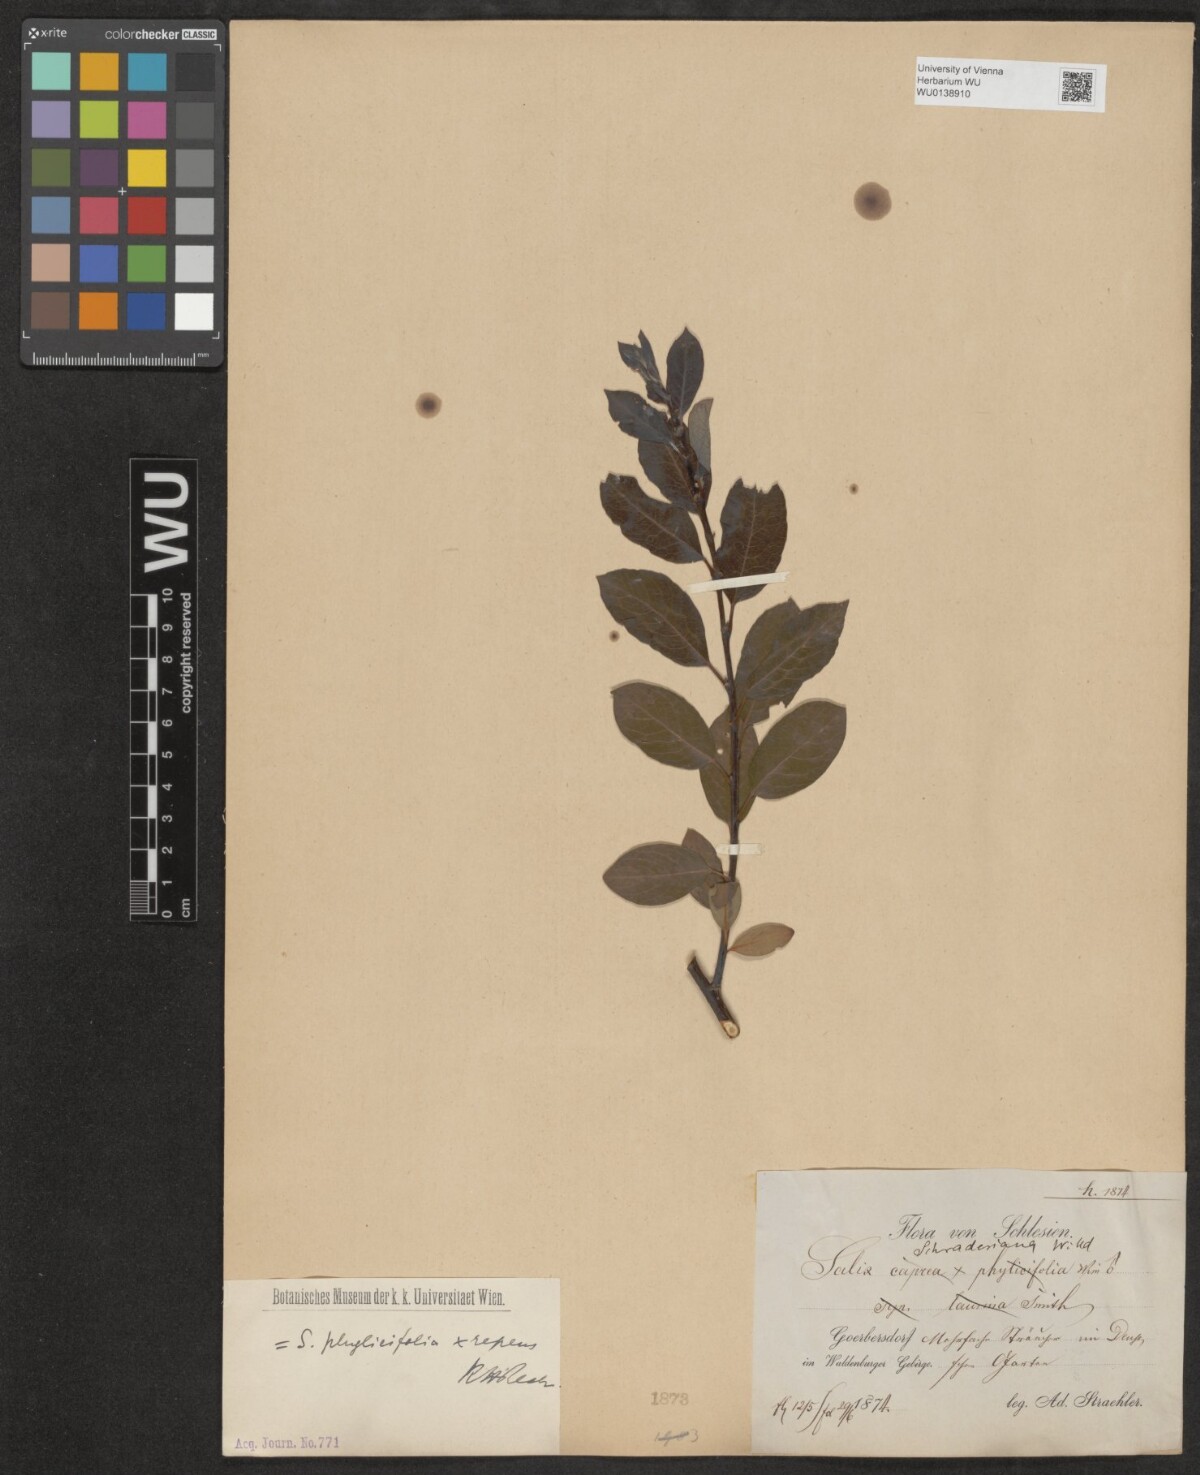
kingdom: Plantae
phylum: Tracheophyta
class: Magnoliopsida
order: Malpighiales
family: Salicaceae
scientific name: Salicaceae
